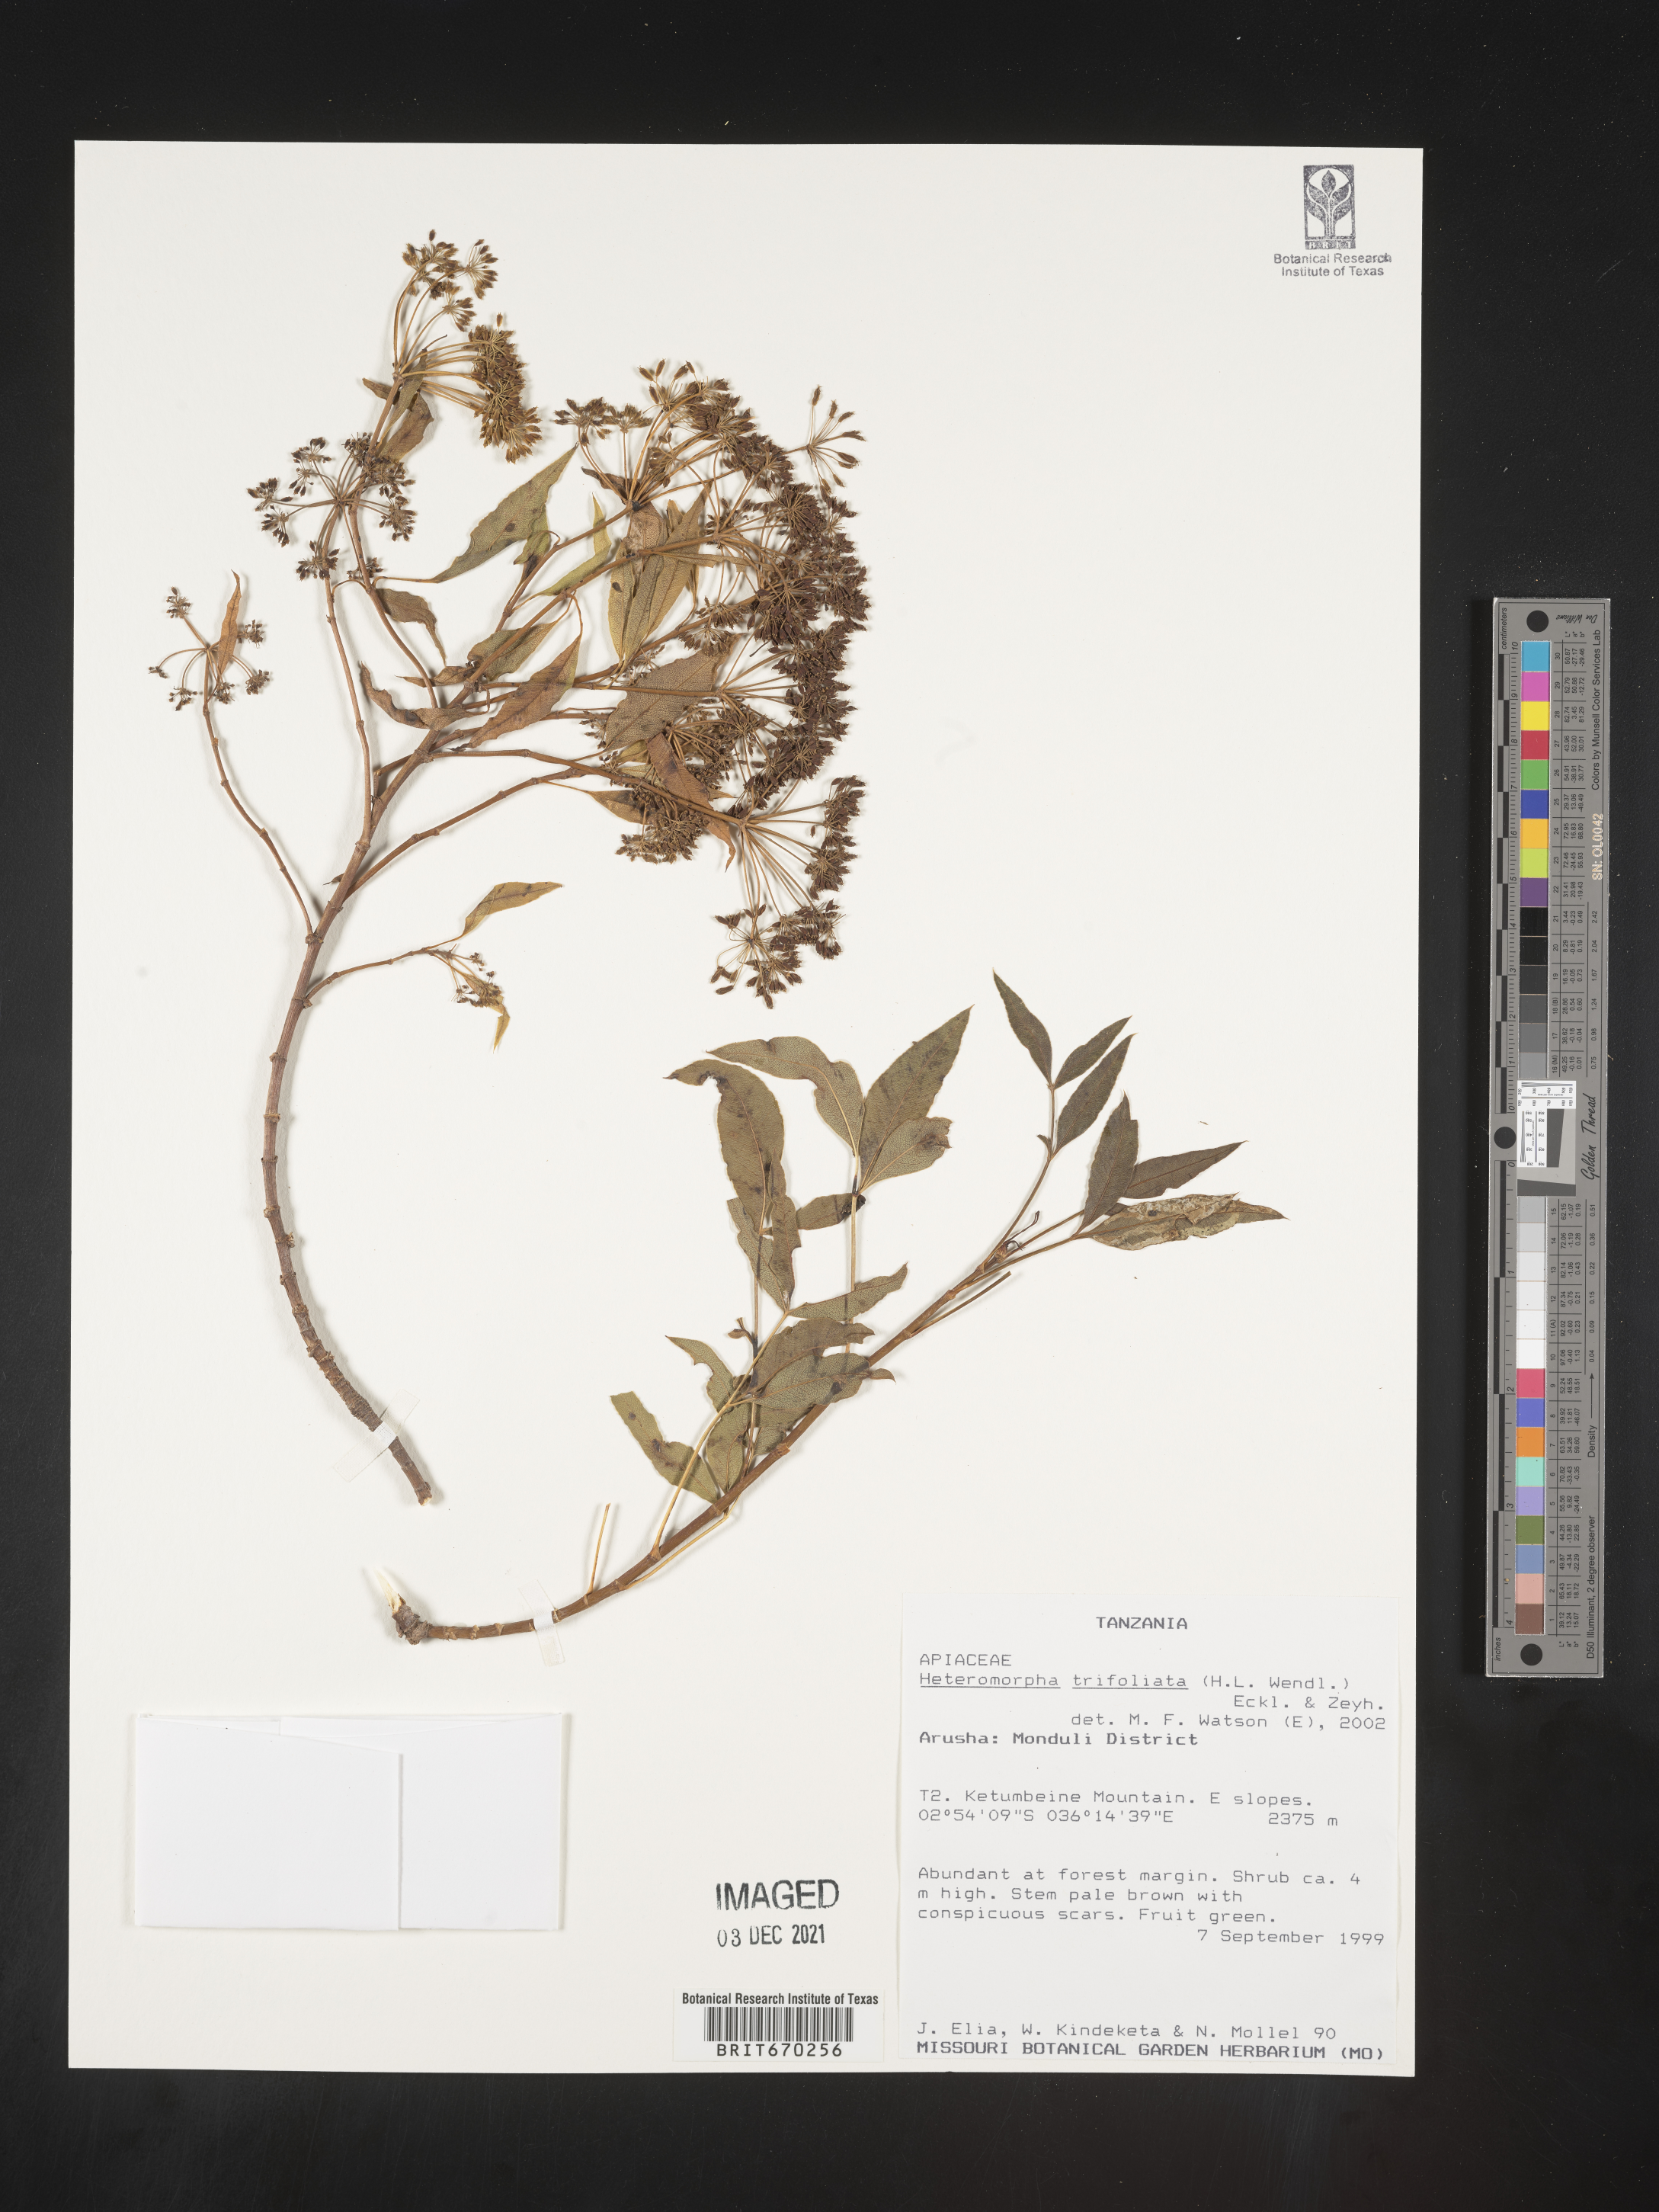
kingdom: Plantae
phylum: Tracheophyta
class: Magnoliopsida
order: Apiales
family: Apiaceae
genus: Heteromorpha
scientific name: Heteromorpha
